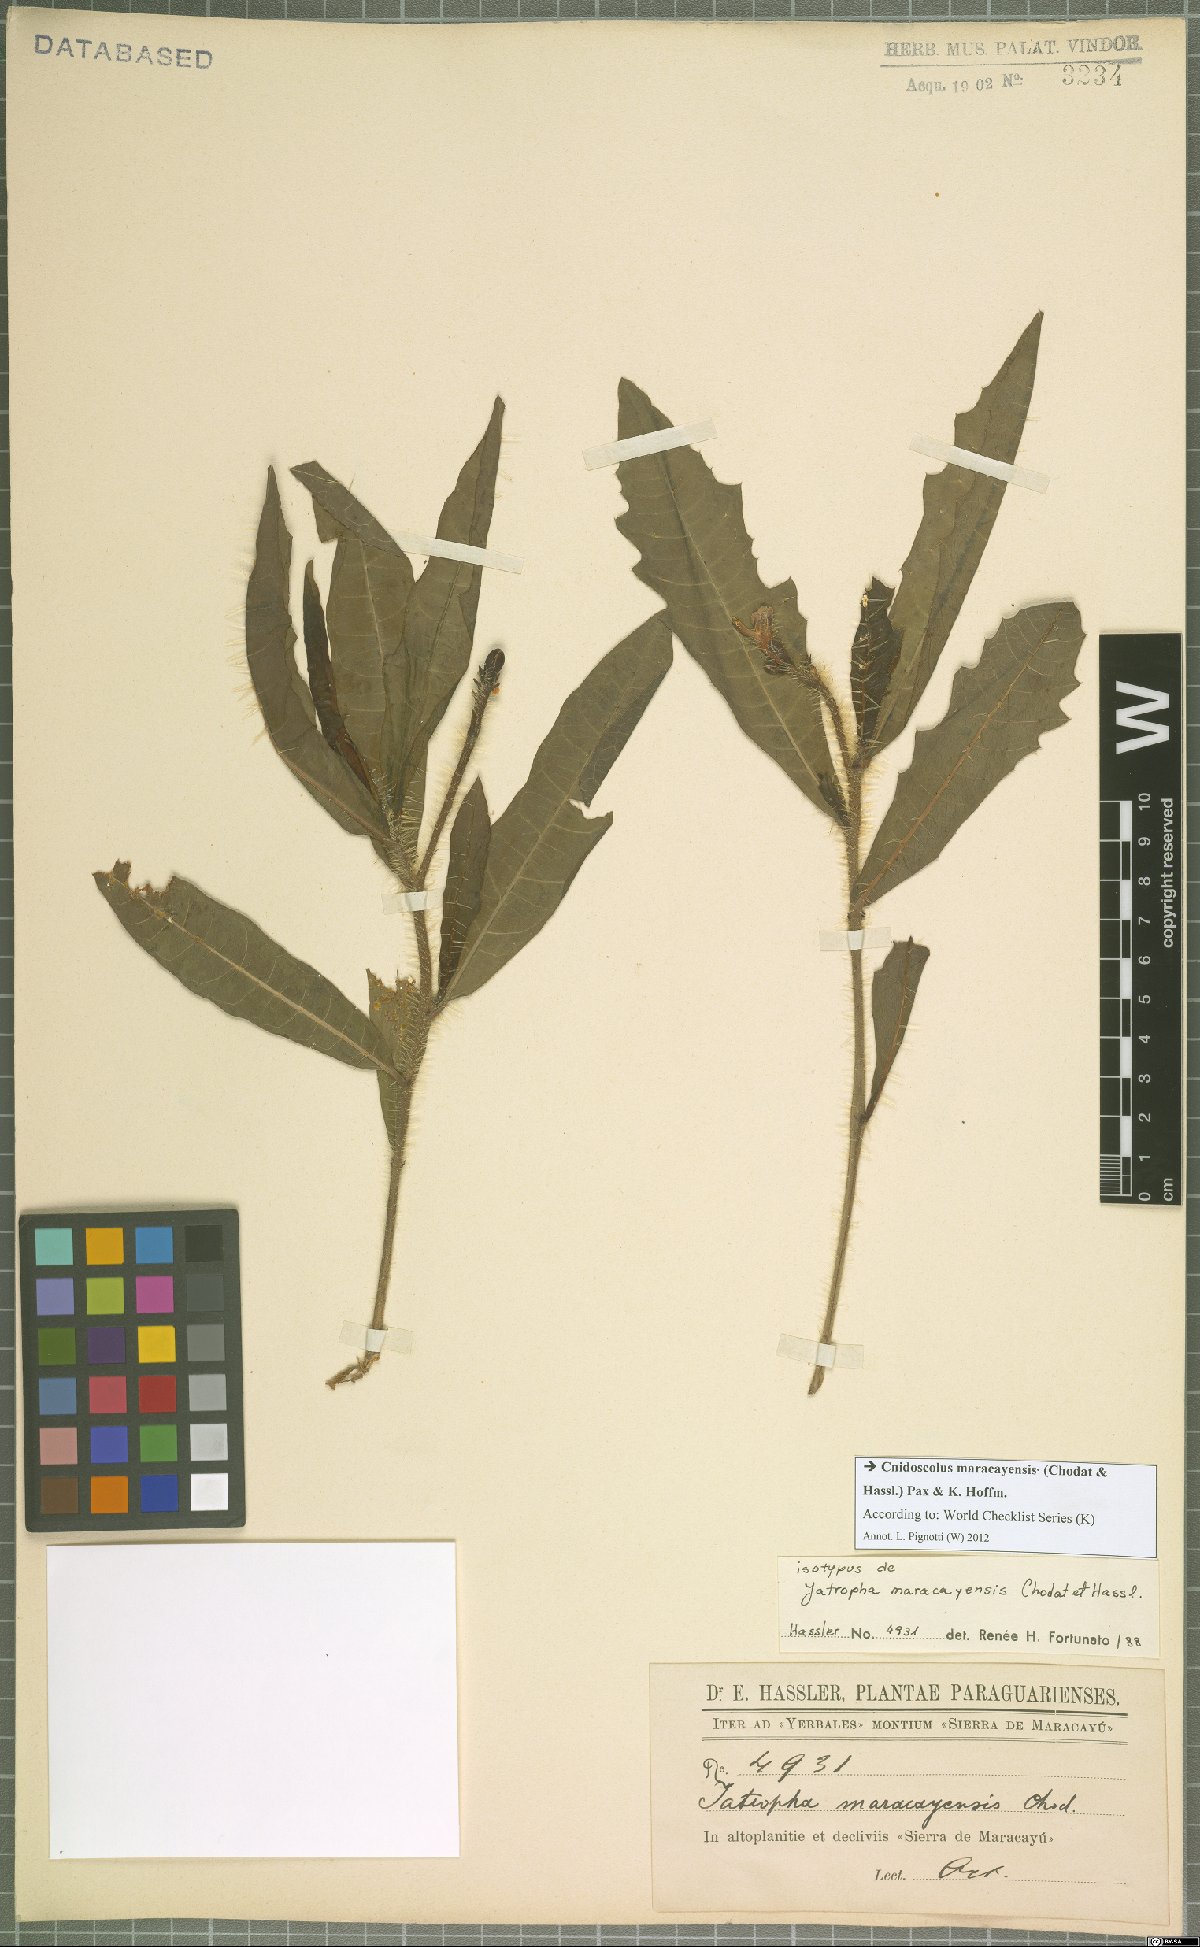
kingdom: Plantae
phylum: Tracheophyta
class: Magnoliopsida
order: Malpighiales
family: Euphorbiaceae
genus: Cnidoscolus
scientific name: Cnidoscolus maracayensis
